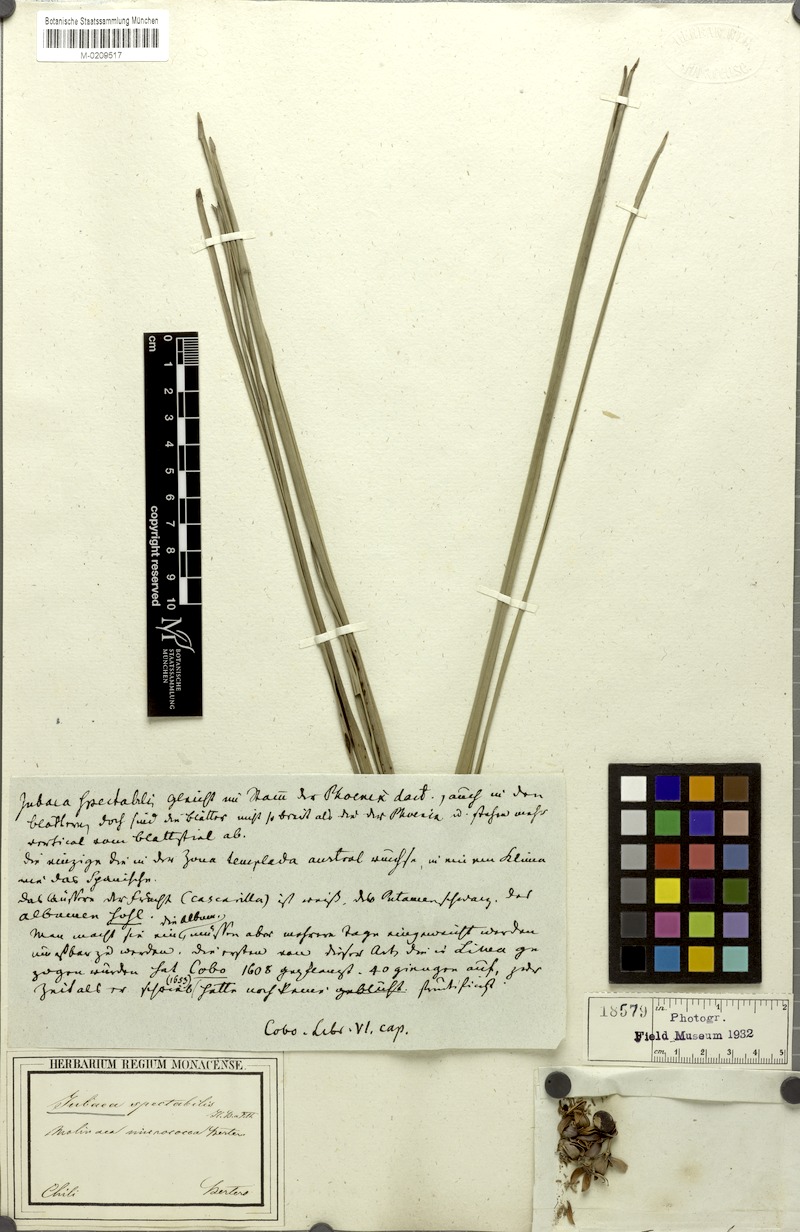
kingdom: Plantae
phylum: Tracheophyta
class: Liliopsida
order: Arecales
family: Arecaceae
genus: Jubaea
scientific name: Jubaea chilensis
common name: Coquito palm
